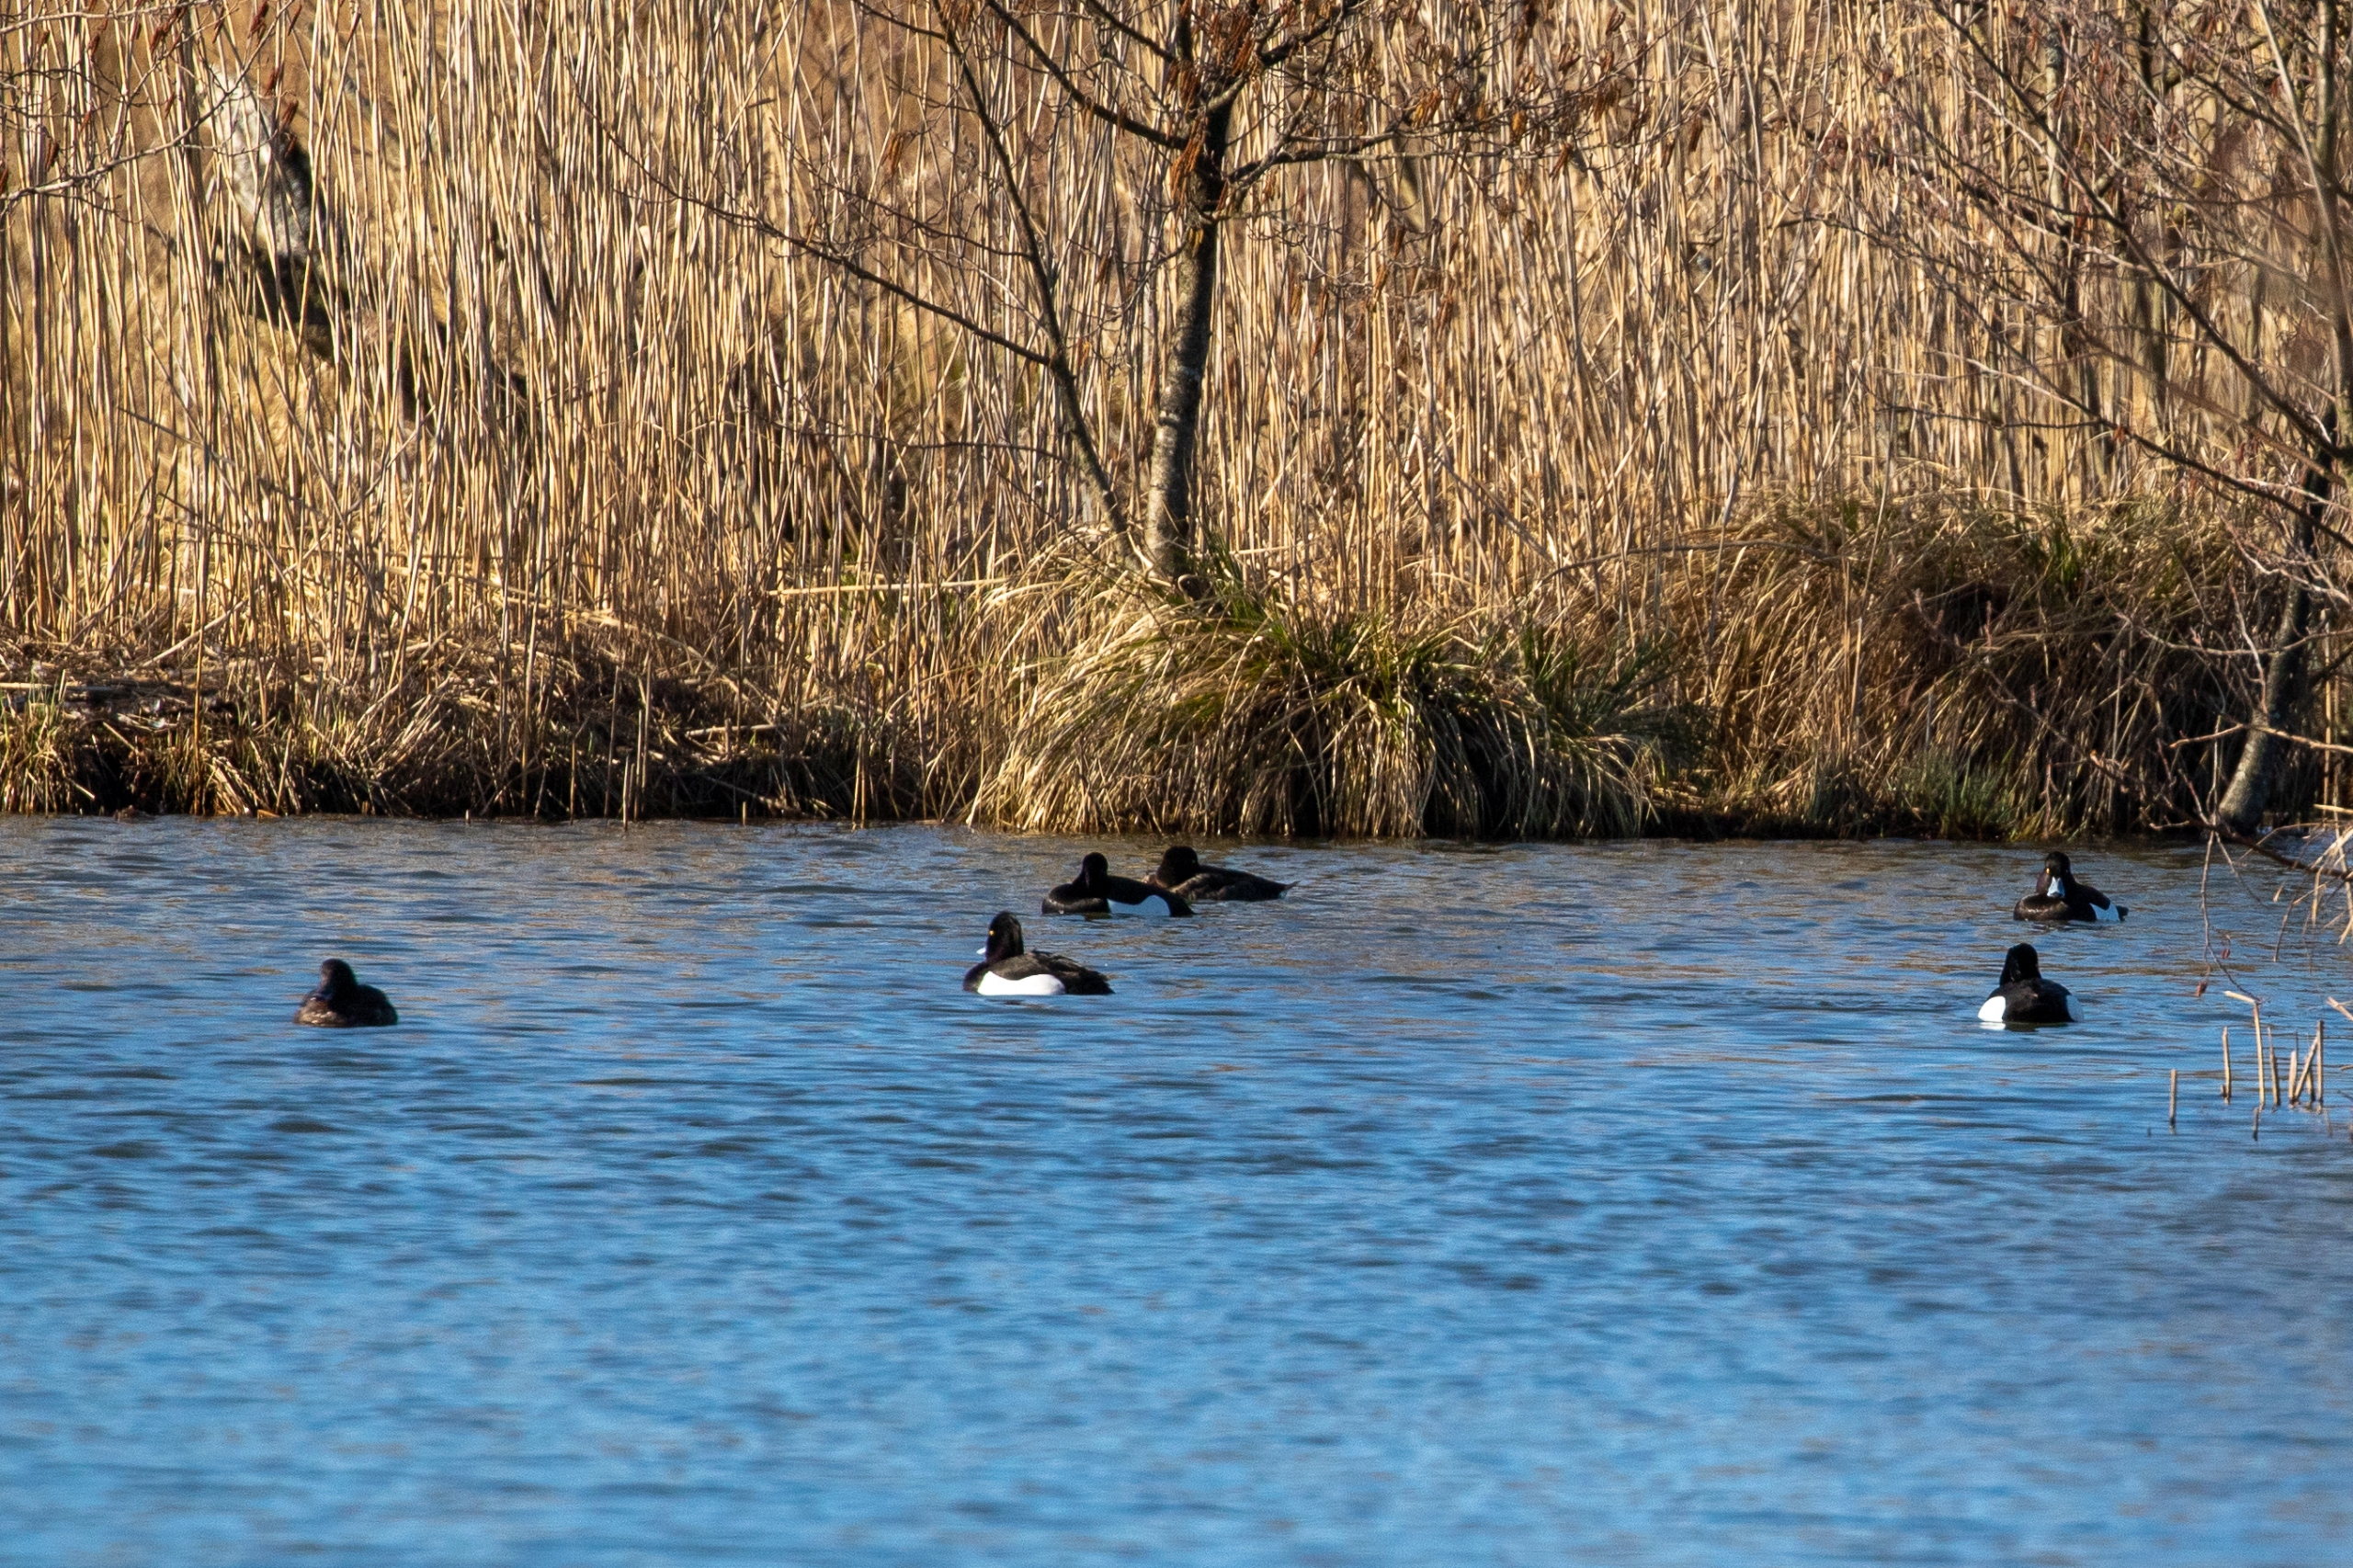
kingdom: Animalia
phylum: Chordata
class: Aves
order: Anseriformes
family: Anatidae
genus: Aythya
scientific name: Aythya fuligula
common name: Troldand
